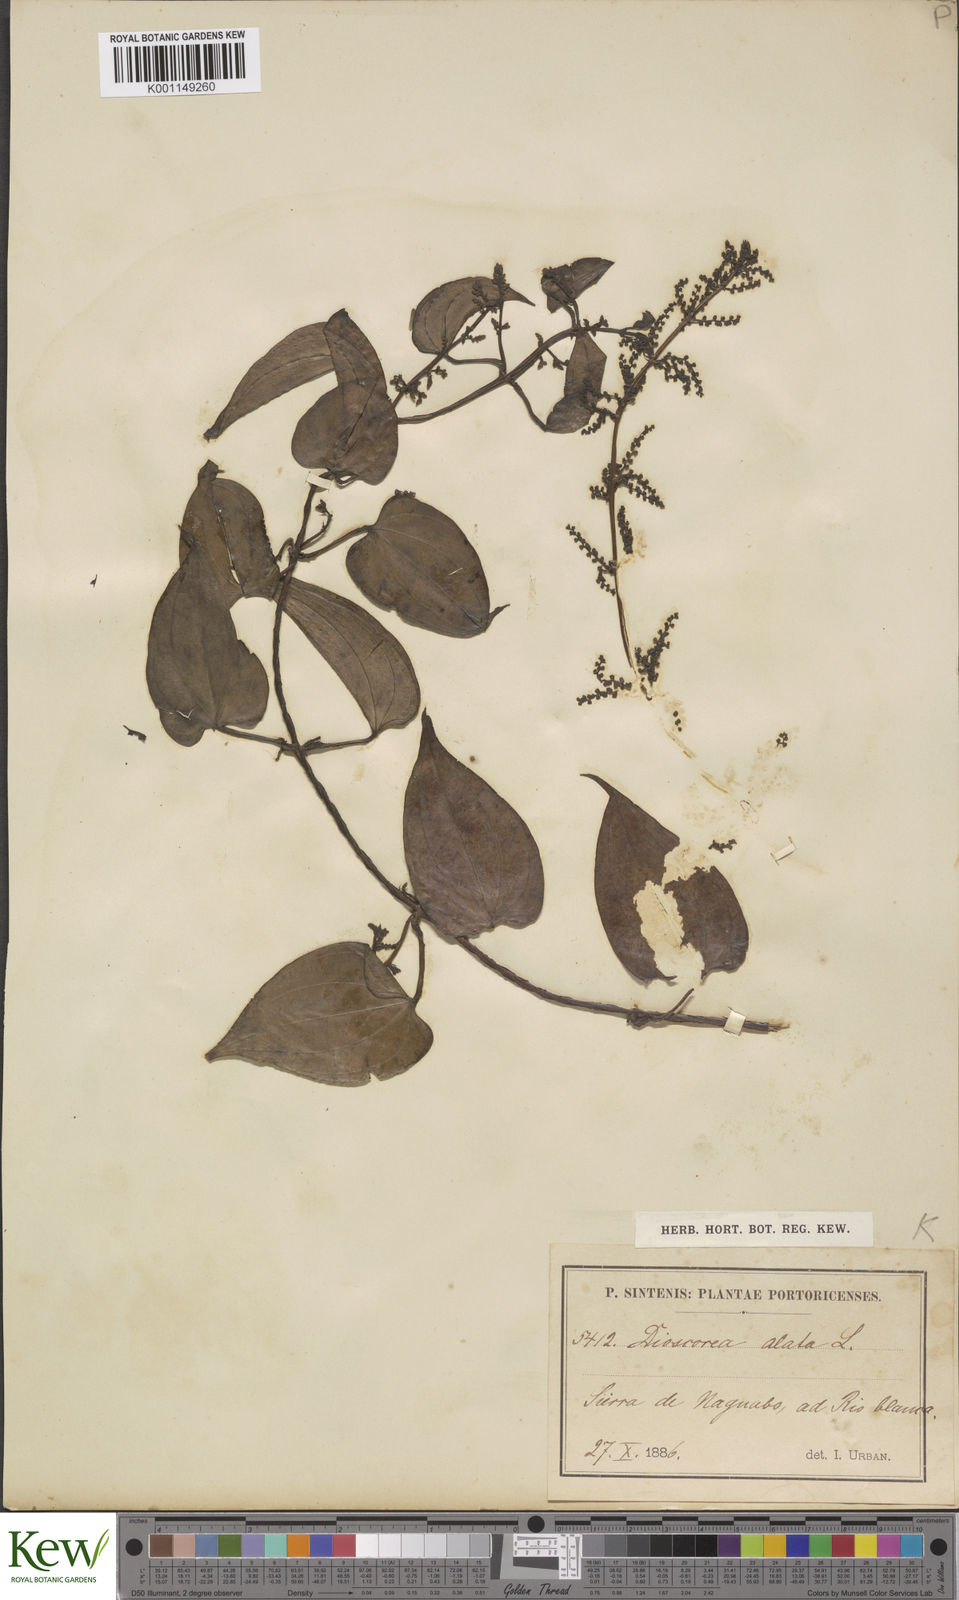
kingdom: Plantae
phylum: Tracheophyta
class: Liliopsida
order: Dioscoreales
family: Dioscoreaceae
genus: Dioscorea
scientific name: Dioscorea alata
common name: Water yam
